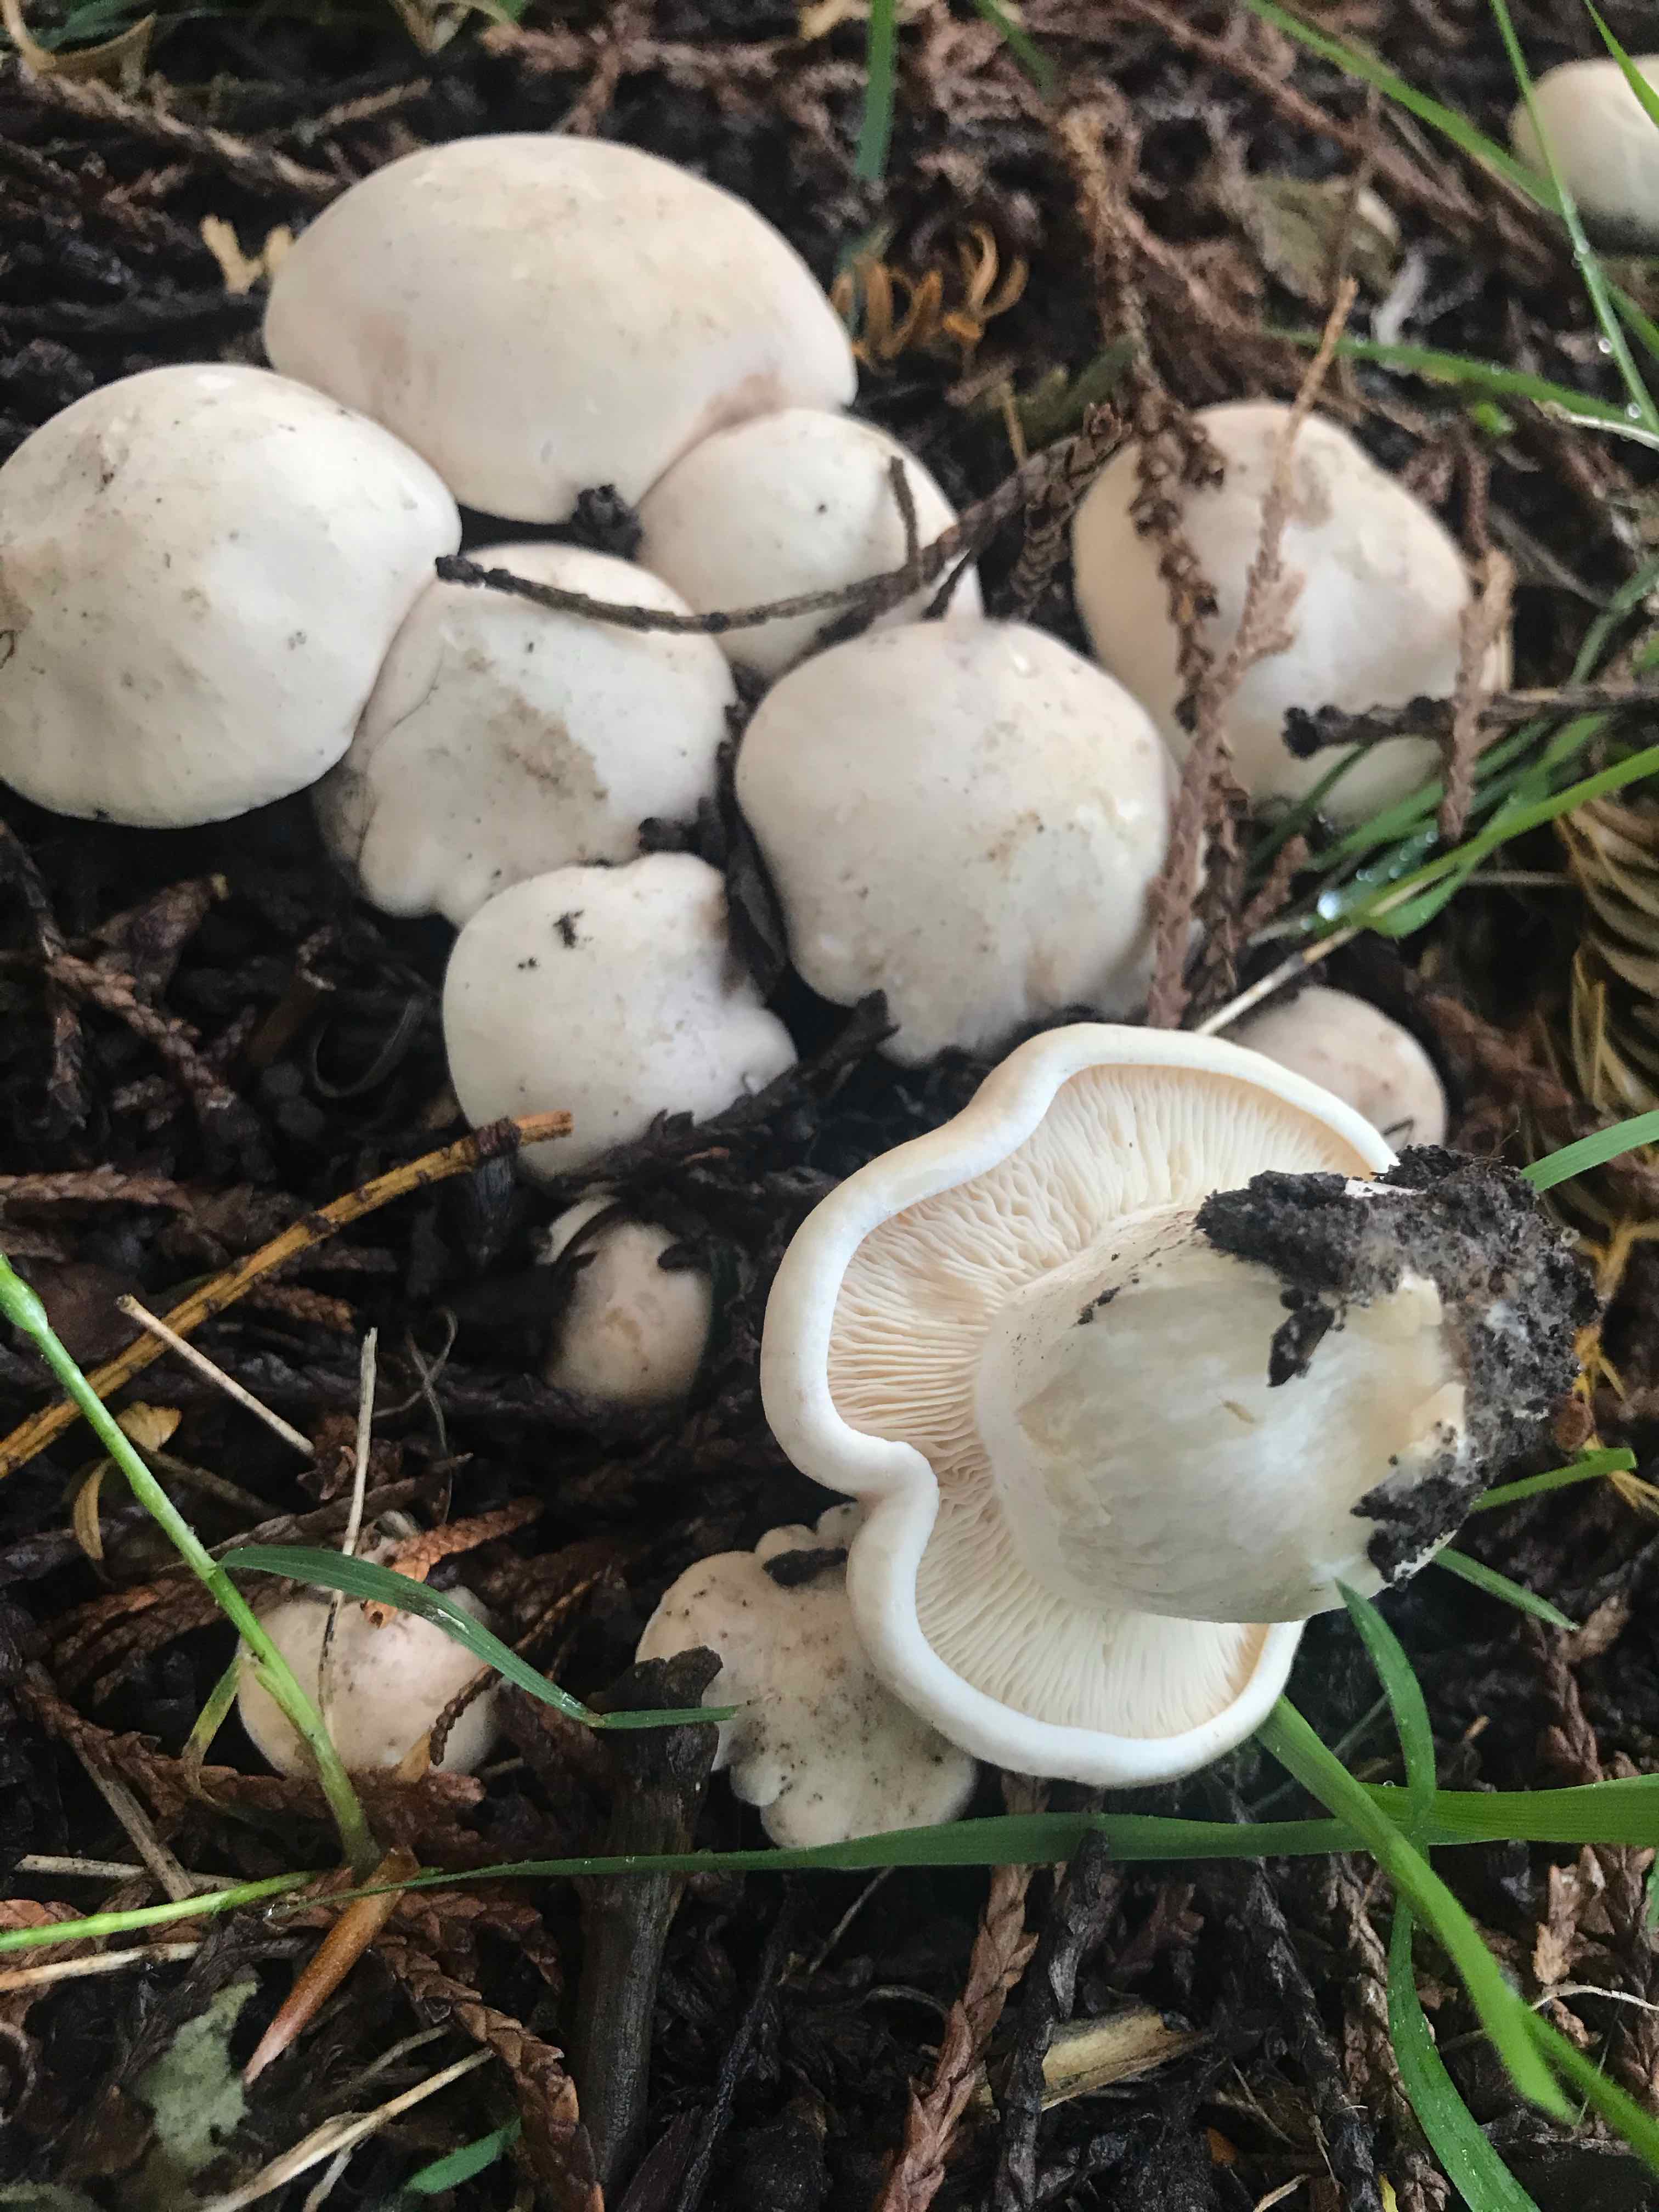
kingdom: Fungi
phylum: Basidiomycota
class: Agaricomycetes
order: Agaricales
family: Lyophyllaceae
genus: Calocybe
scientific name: Calocybe gambosa
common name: vårmusseron
